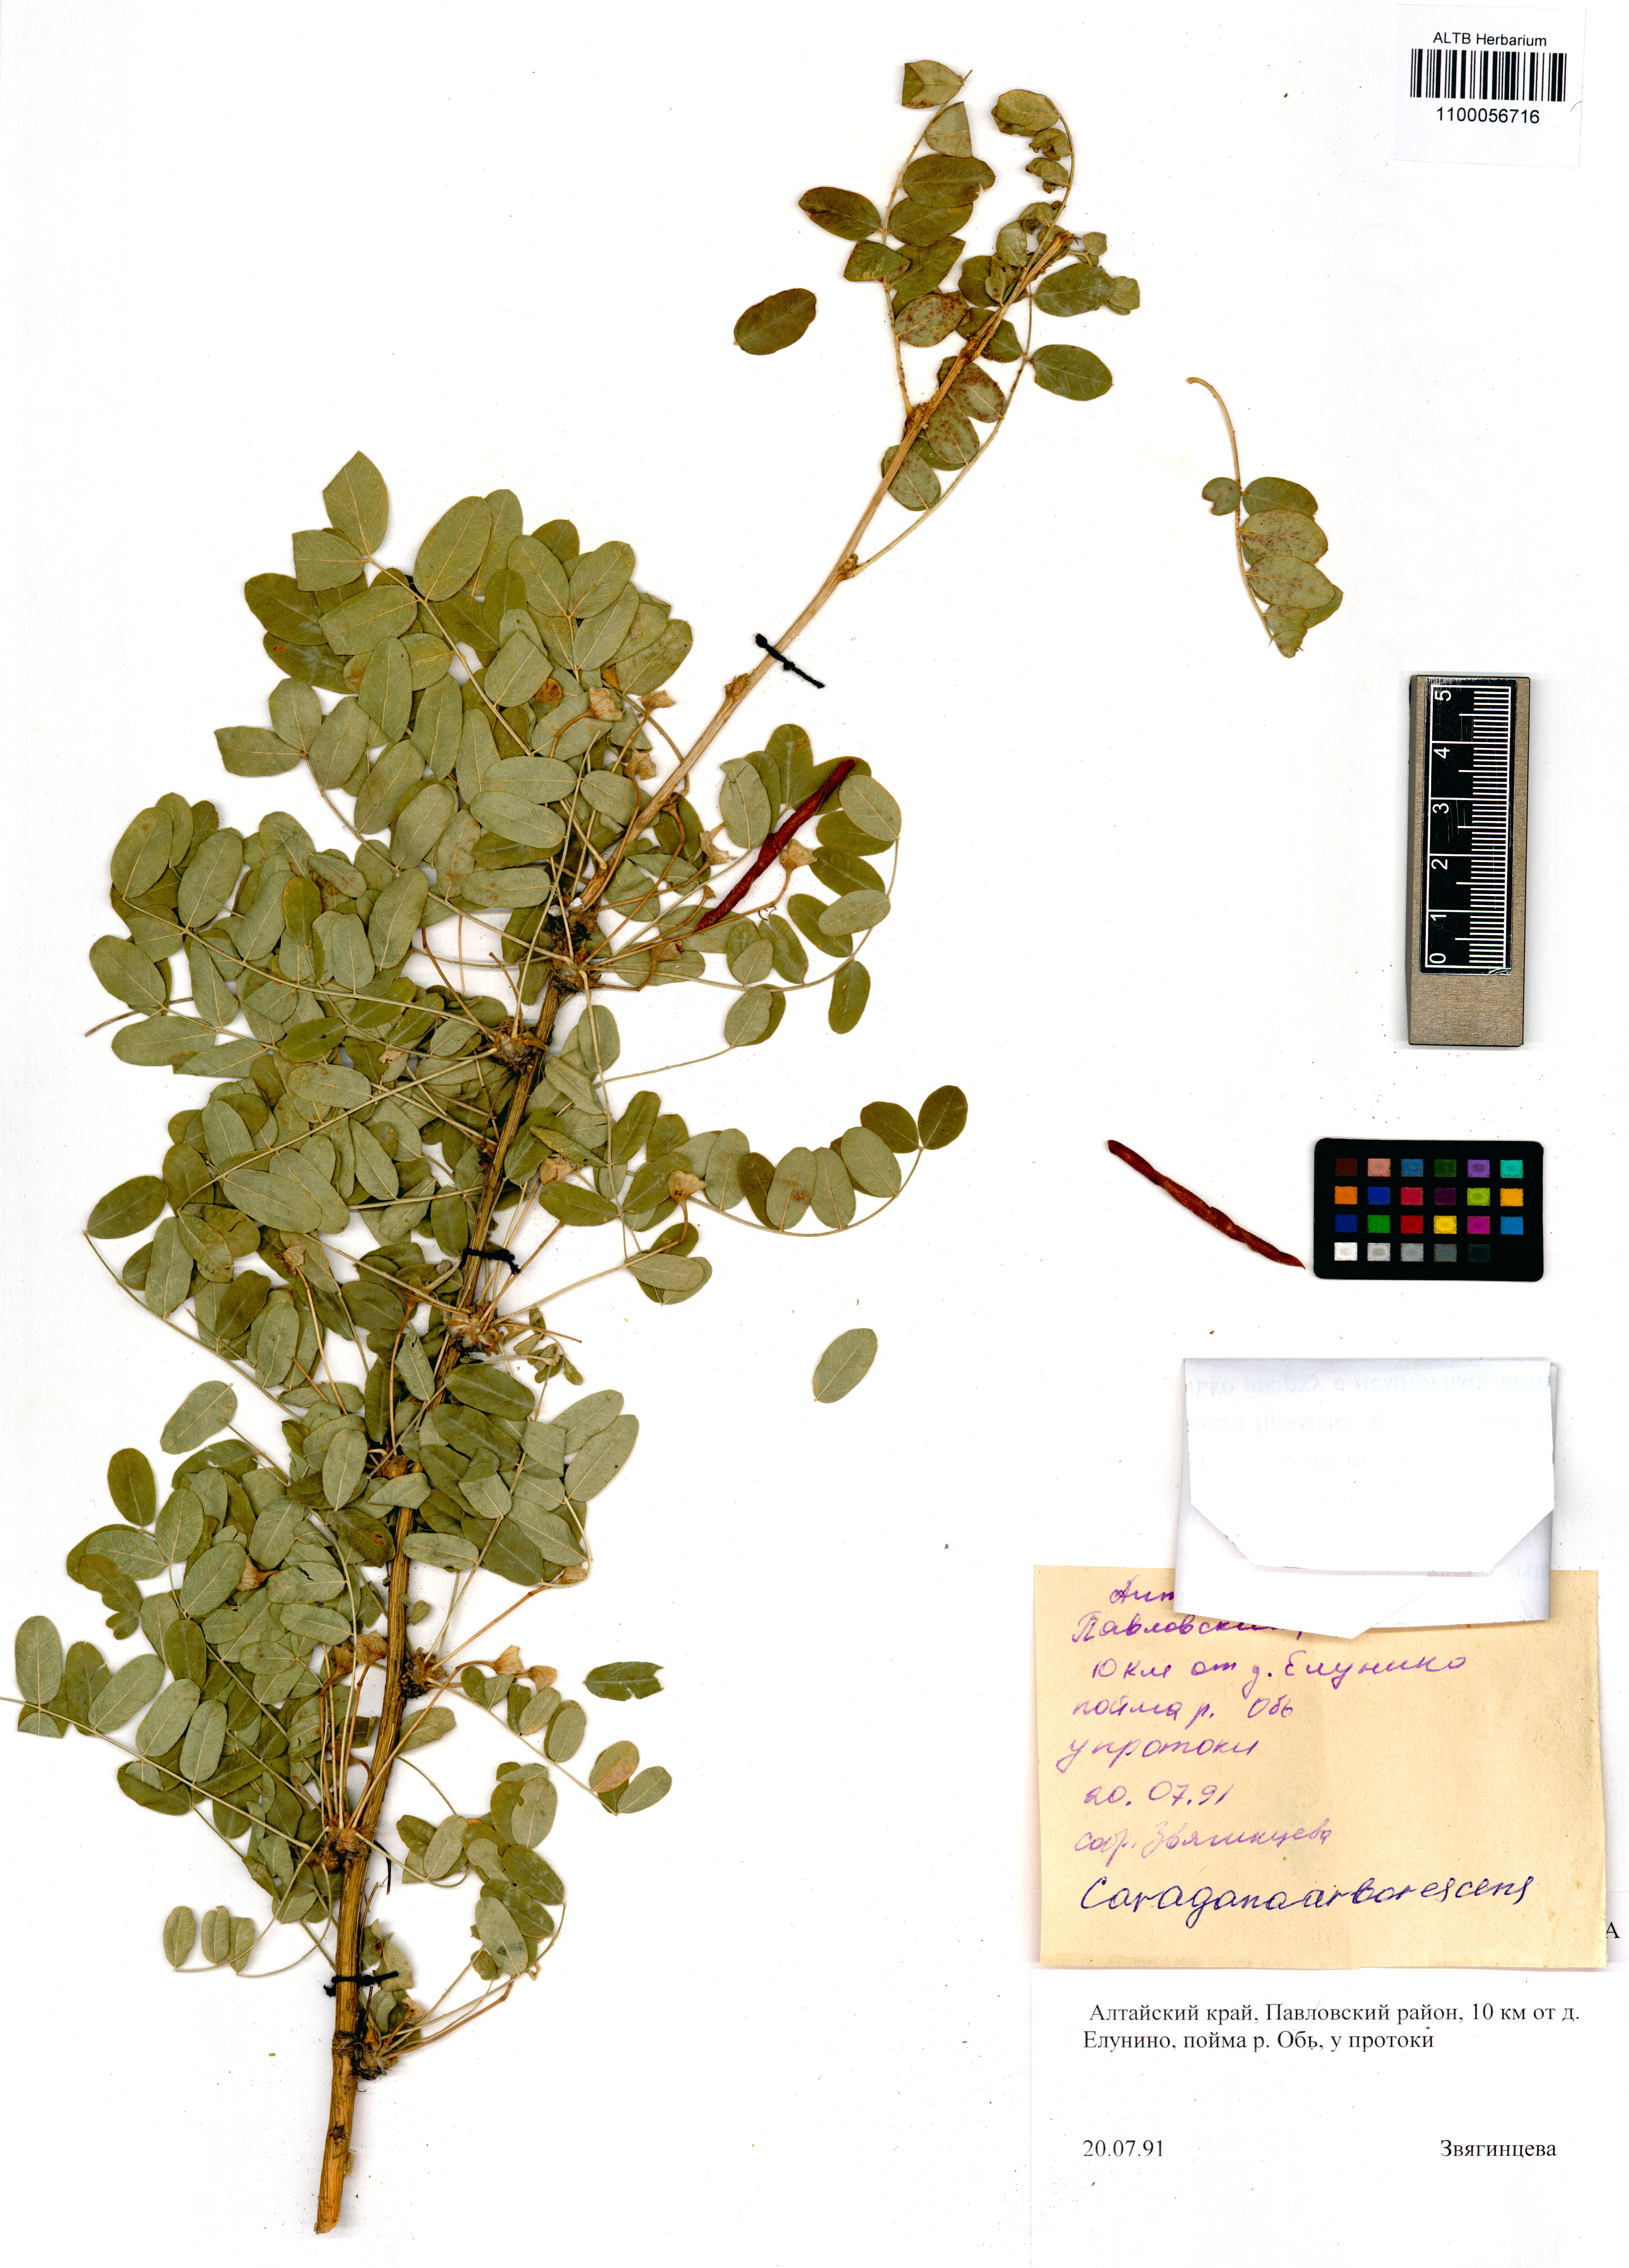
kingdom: Plantae
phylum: Tracheophyta
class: Magnoliopsida
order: Fabales
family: Fabaceae
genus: Caragana
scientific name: Caragana arborescens
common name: Siberian peashrub
